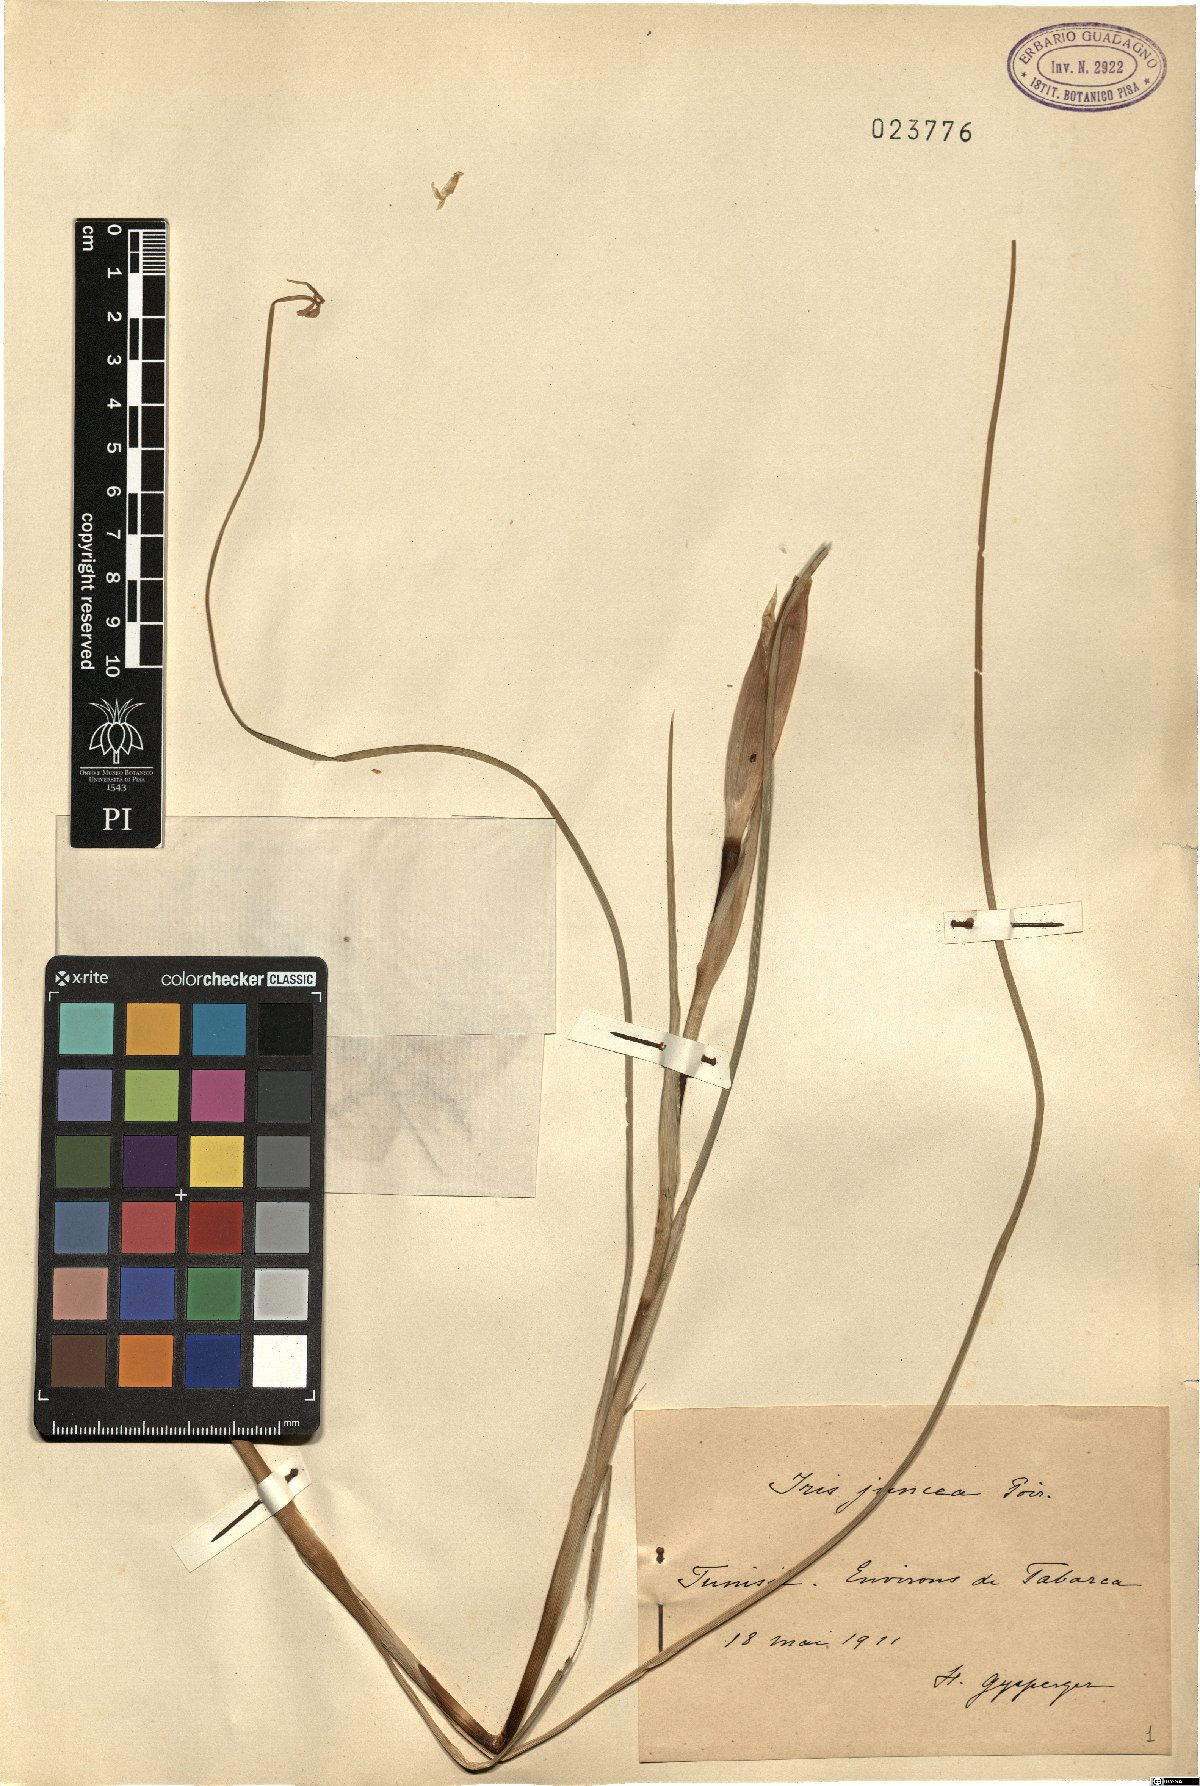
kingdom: Plantae
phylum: Tracheophyta
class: Liliopsida
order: Asparagales
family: Iridaceae
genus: Iris
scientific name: Iris juncea
